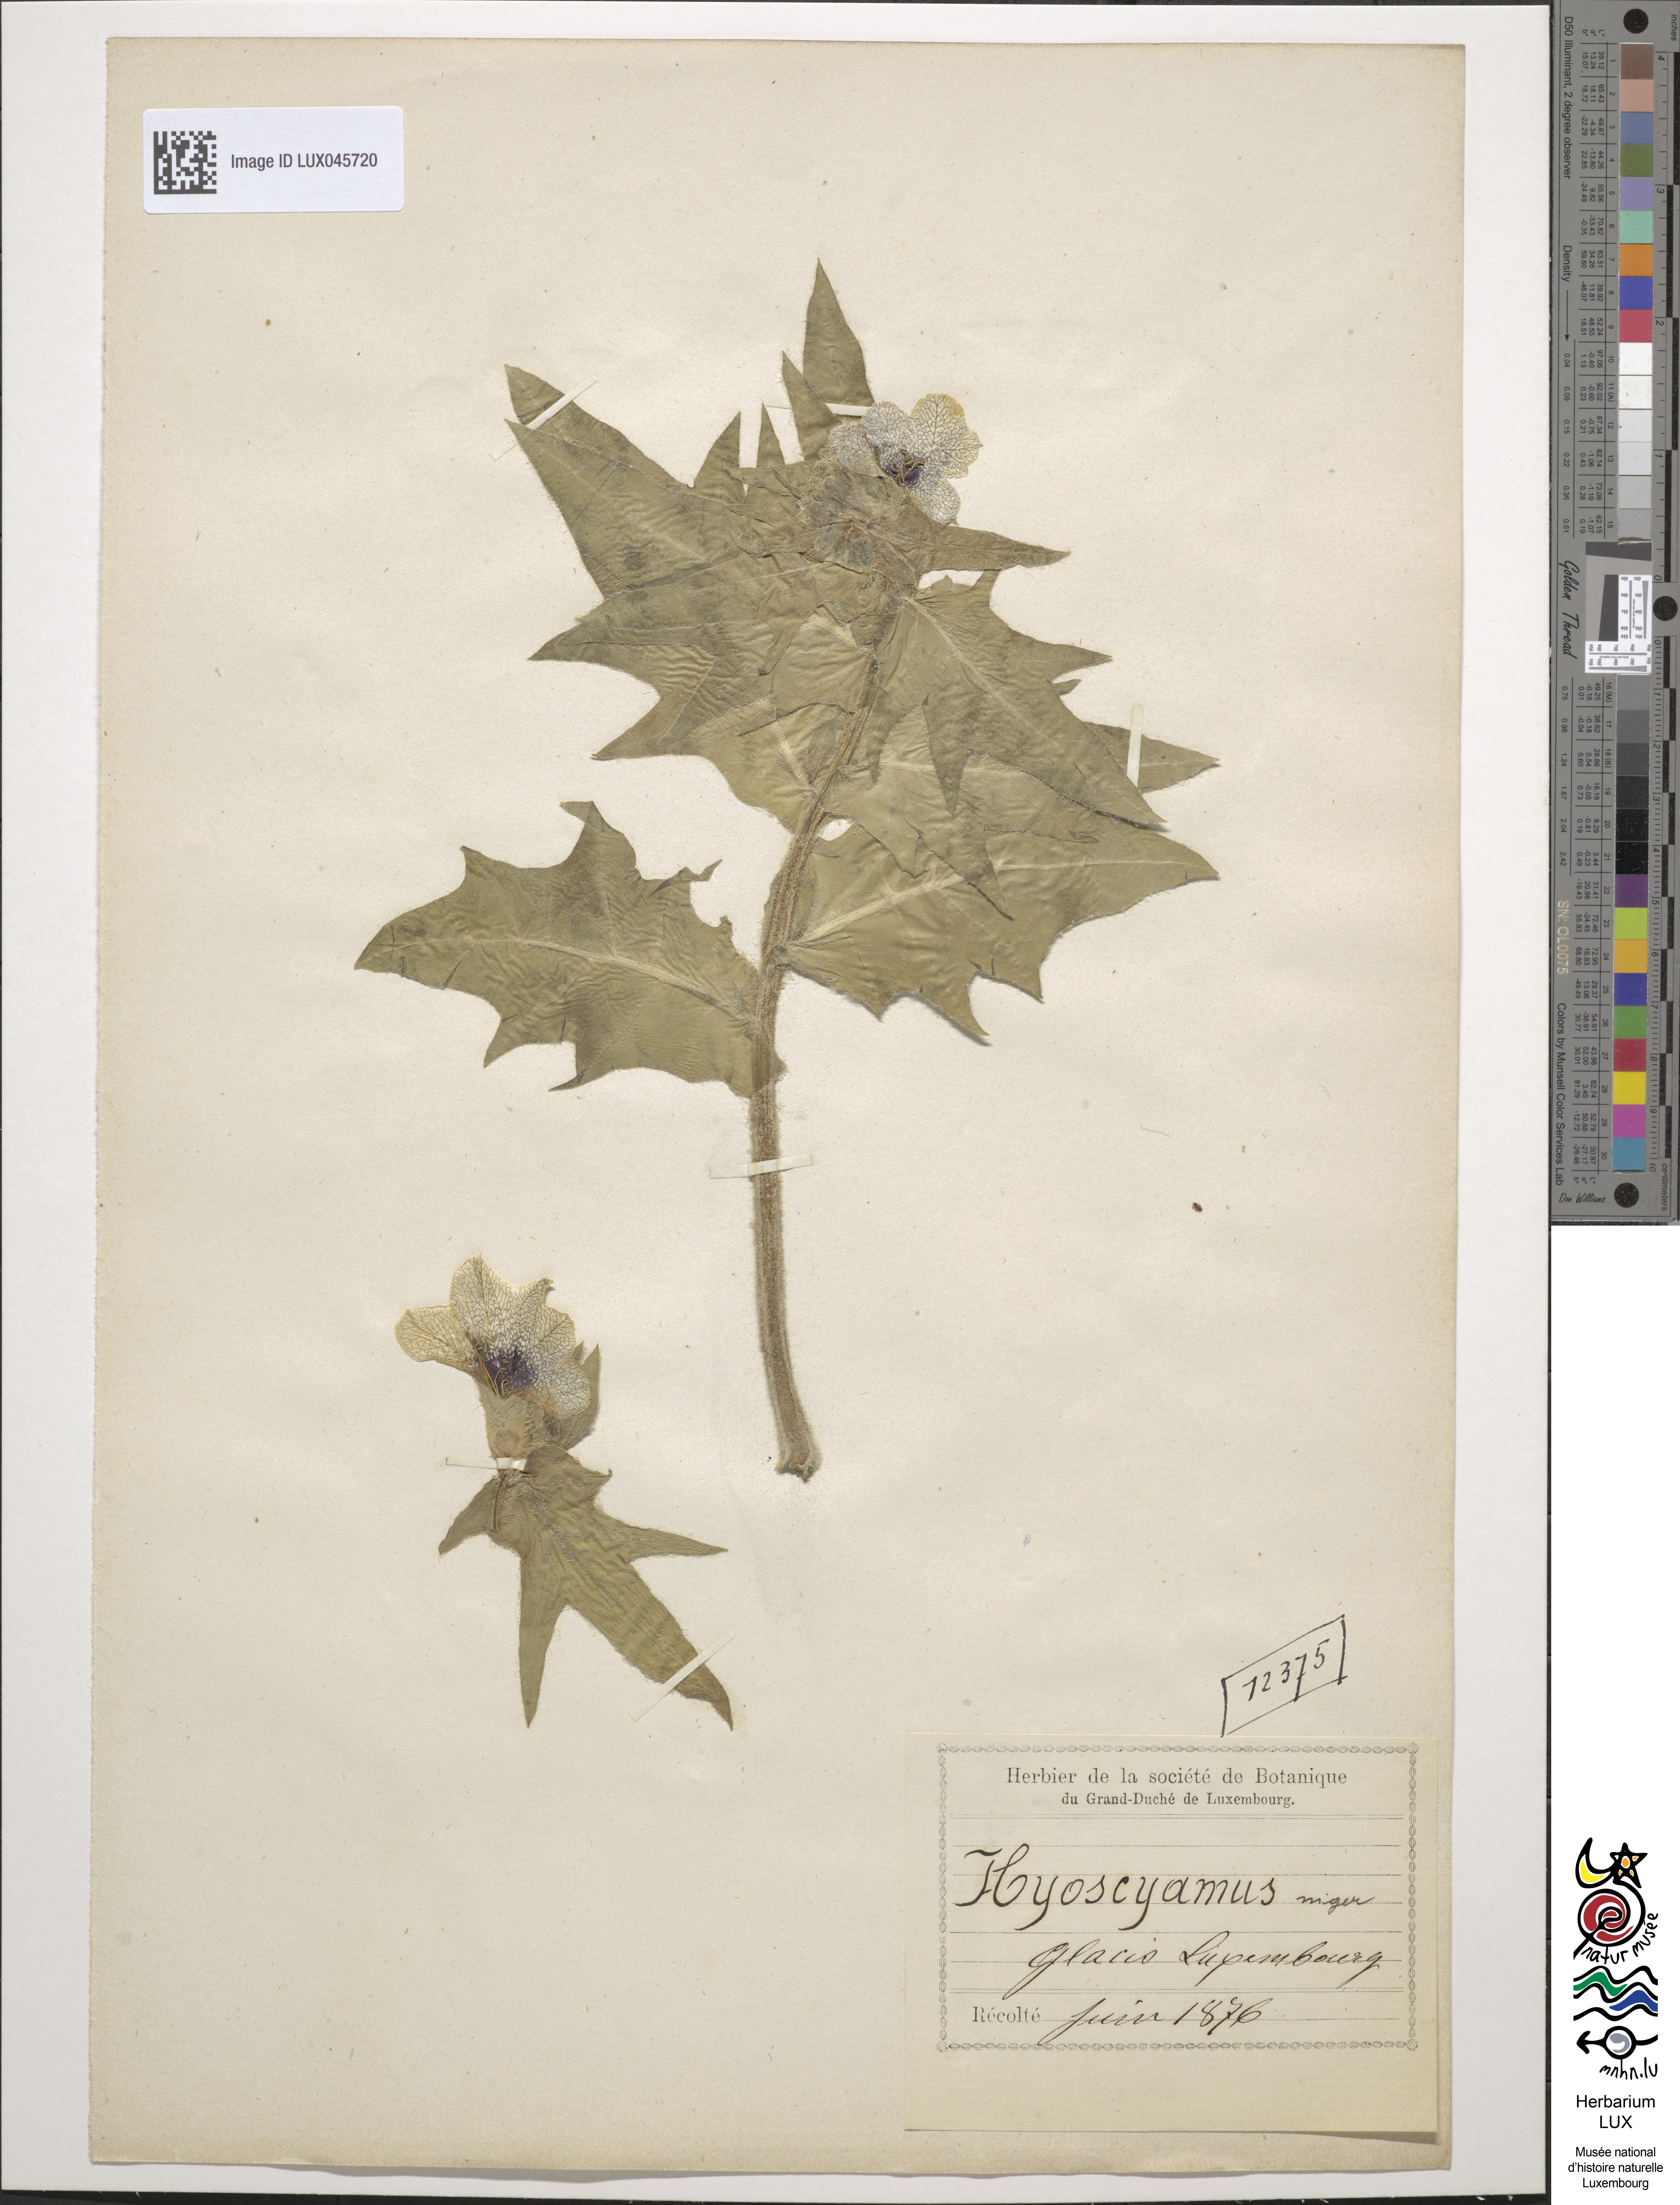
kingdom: Plantae
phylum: Tracheophyta
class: Magnoliopsida
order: Solanales
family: Solanaceae
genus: Hyoscyamus
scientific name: Hyoscyamus niger
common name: Henbane
